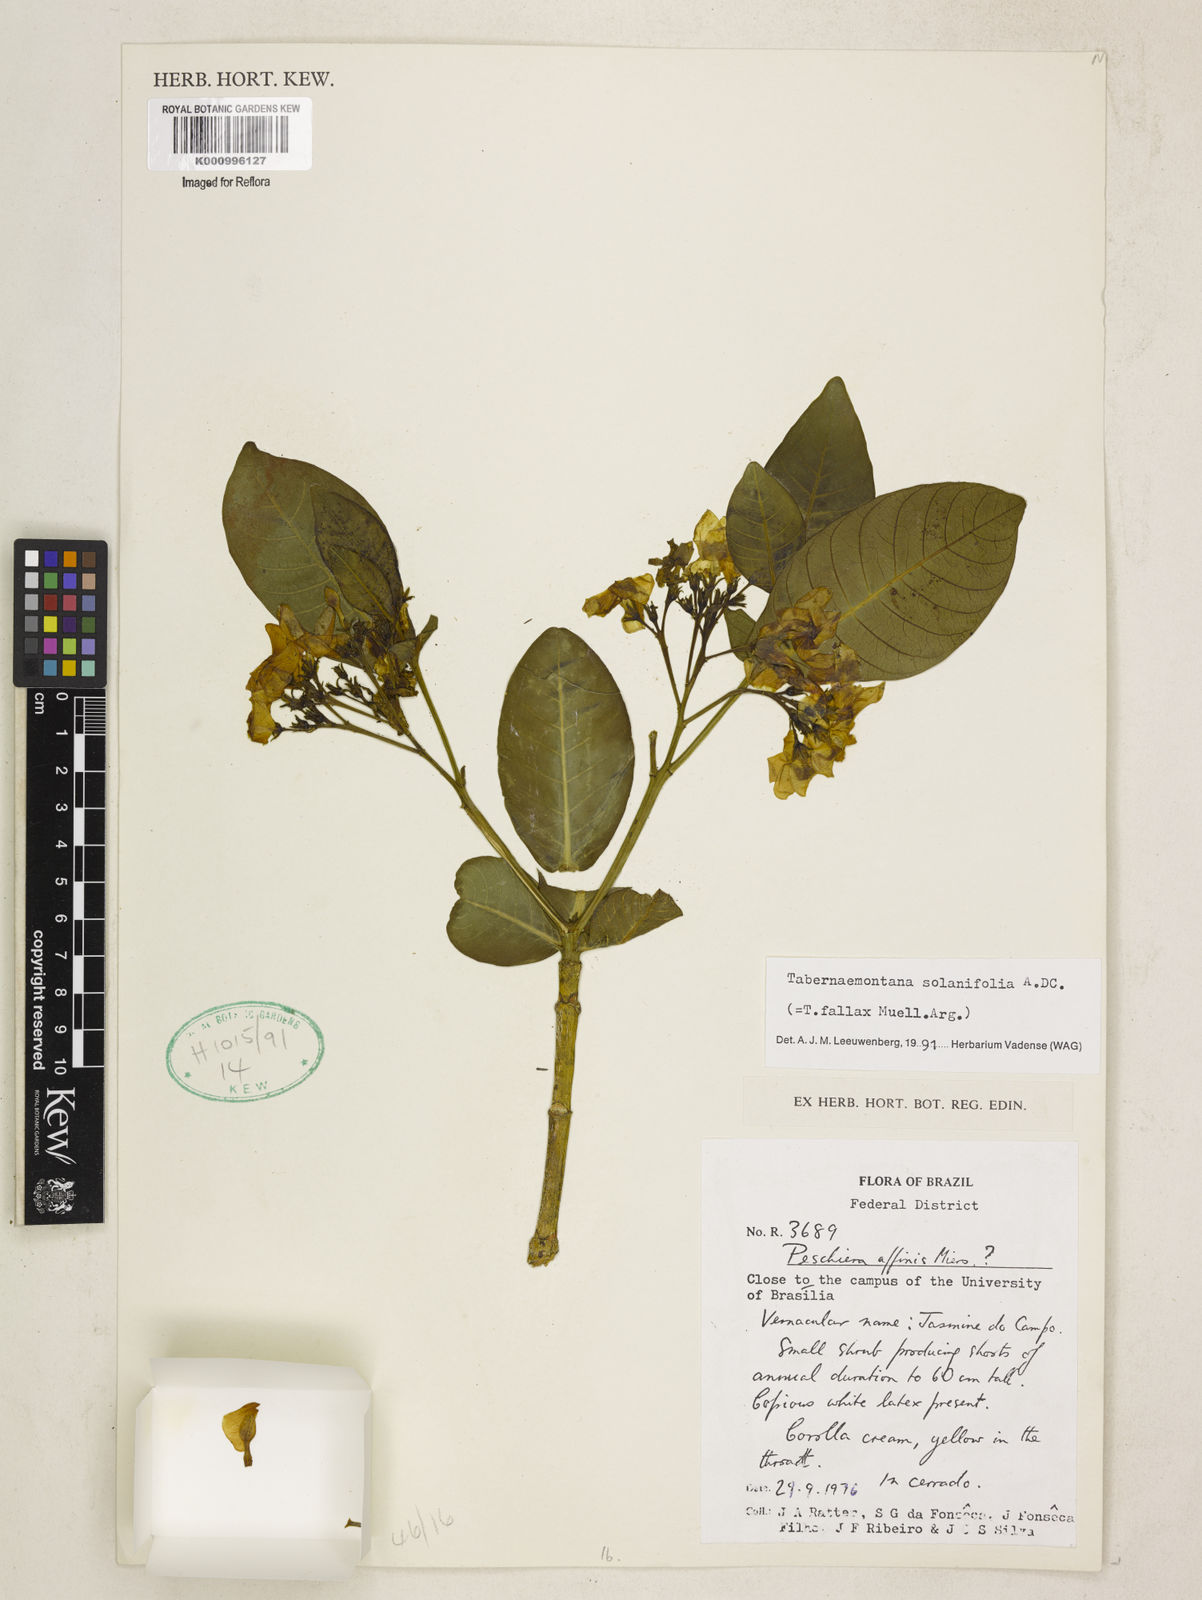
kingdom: Plantae
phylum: Tracheophyta
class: Magnoliopsida
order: Gentianales
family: Apocynaceae
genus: Tabernaemontana
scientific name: Tabernaemontana solanifolia
